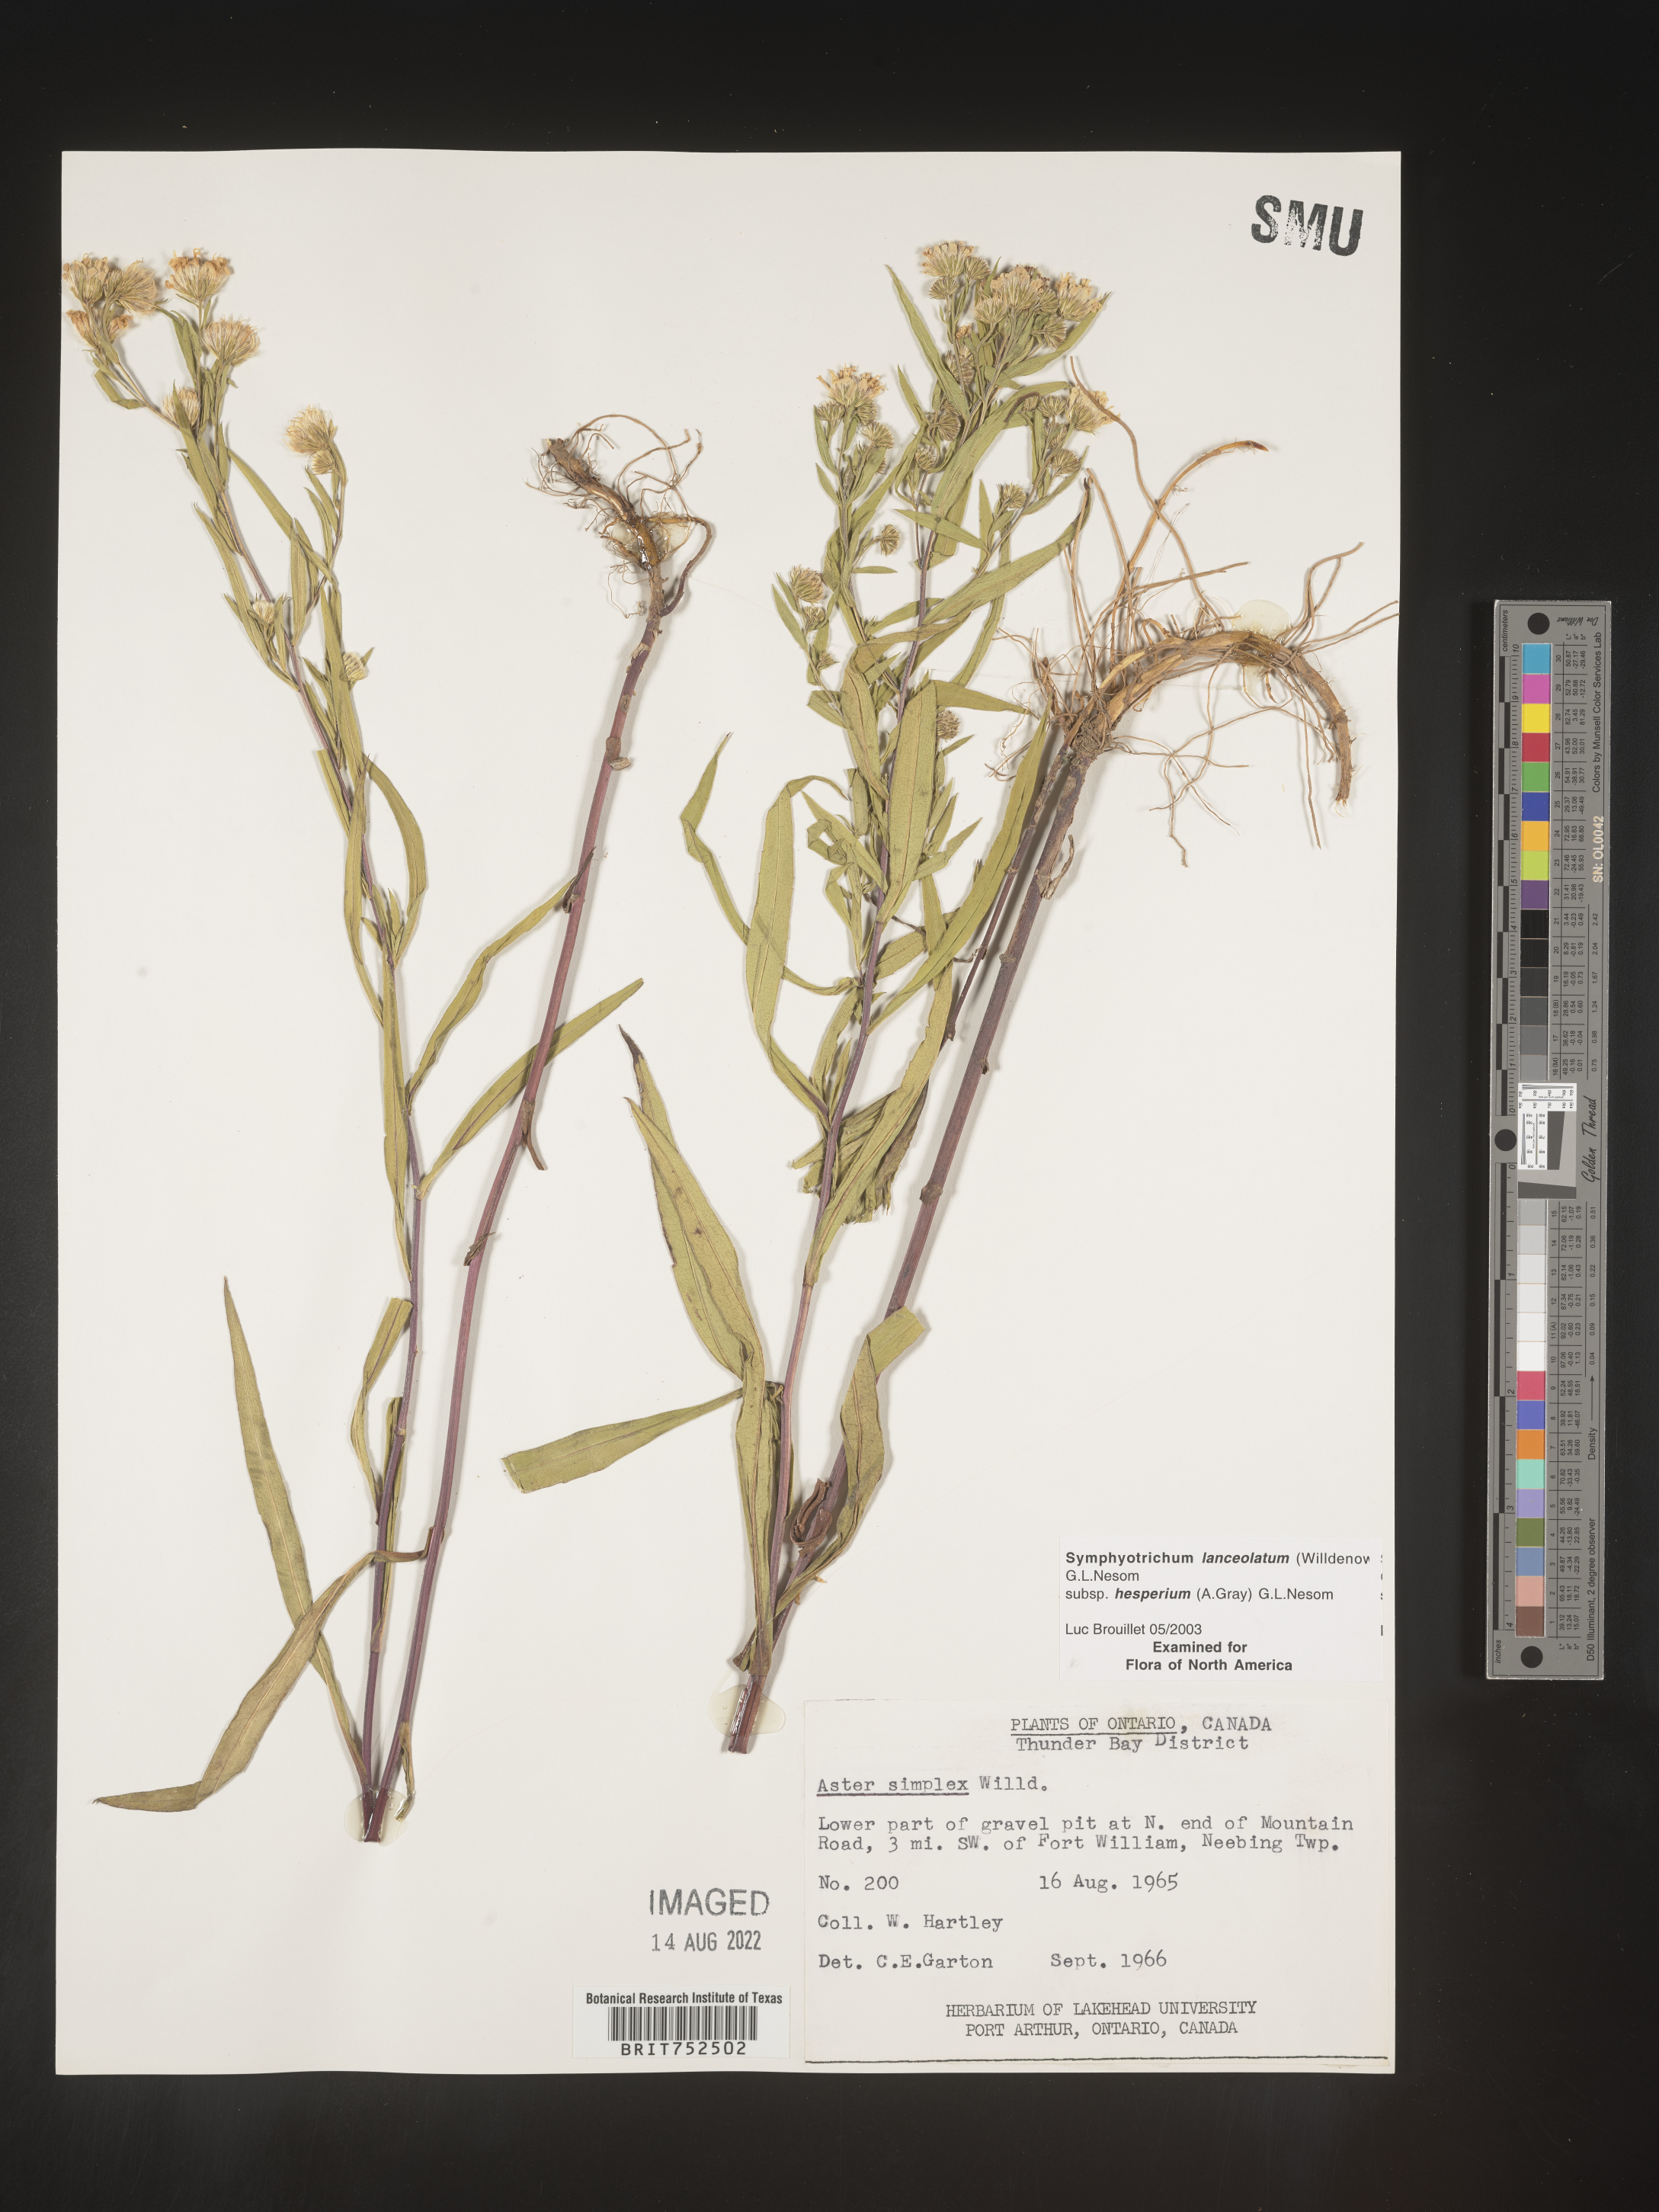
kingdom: Plantae
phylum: Tracheophyta
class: Magnoliopsida
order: Asterales
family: Asteraceae
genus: Symphyotrichum
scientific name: Symphyotrichum lanceolatum
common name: Panicled aster
